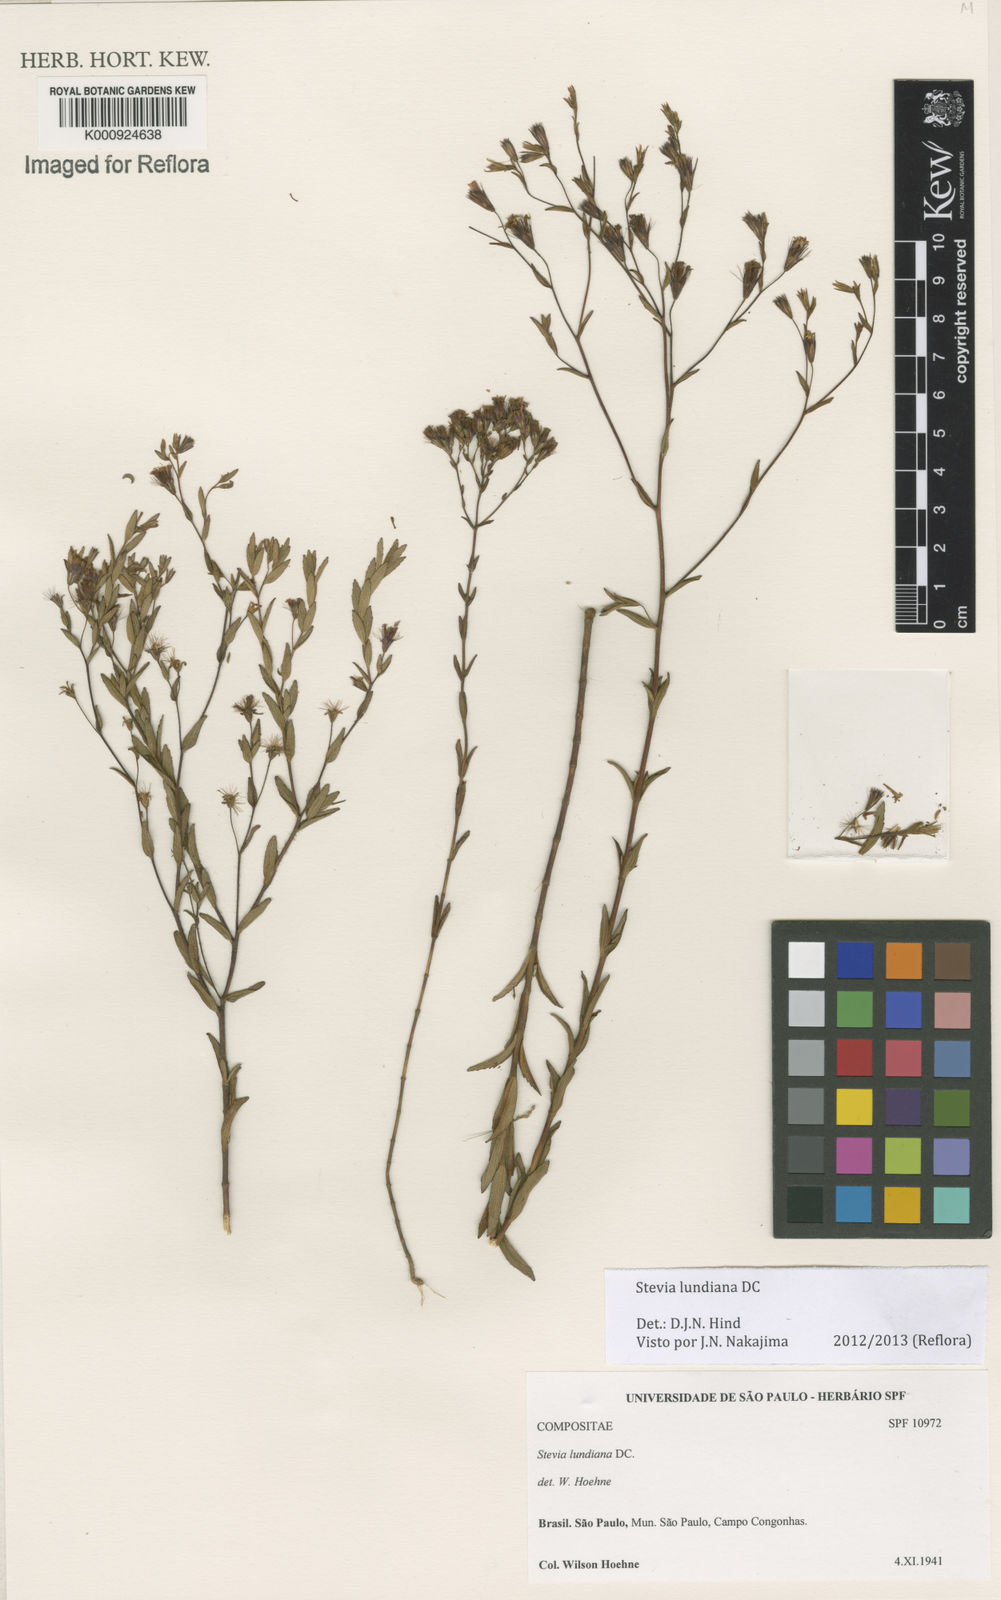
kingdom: Plantae
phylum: Tracheophyta
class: Magnoliopsida
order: Asterales
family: Asteraceae
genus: Stevia
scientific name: Stevia lundiana
